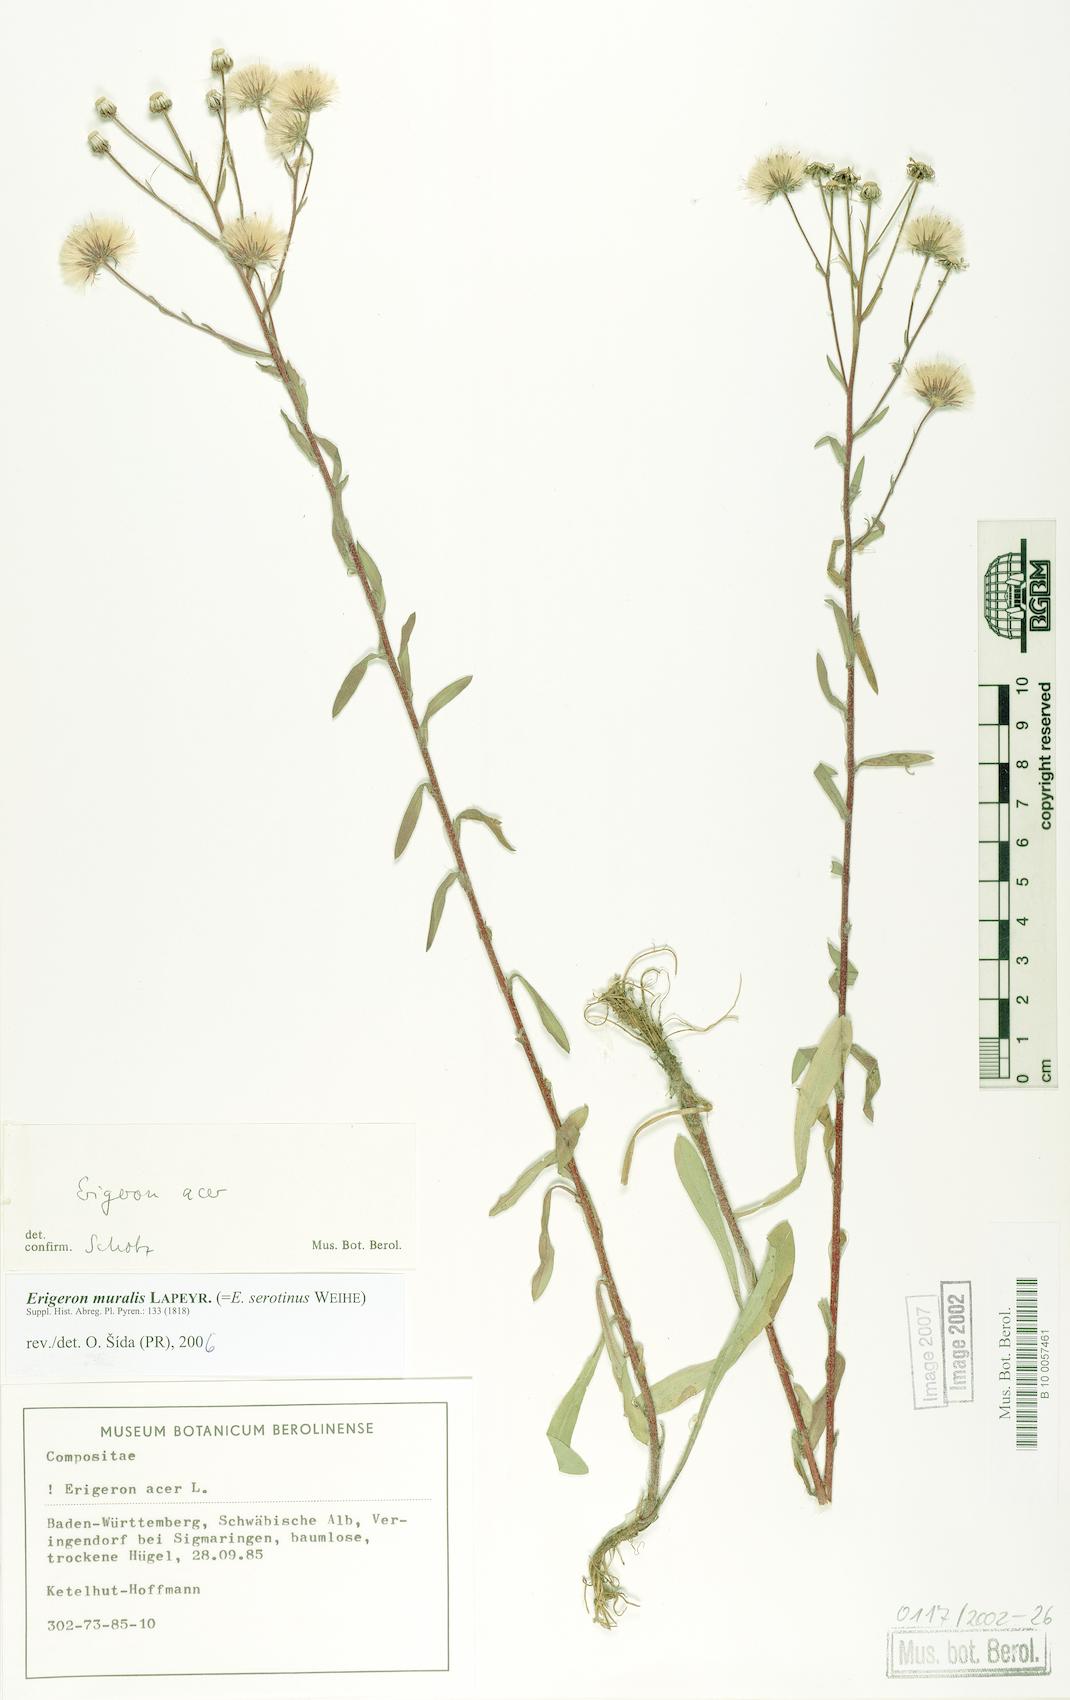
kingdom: Plantae
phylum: Tracheophyta
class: Magnoliopsida
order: Asterales
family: Asteraceae
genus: Erigeron
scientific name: Erigeron muralis
